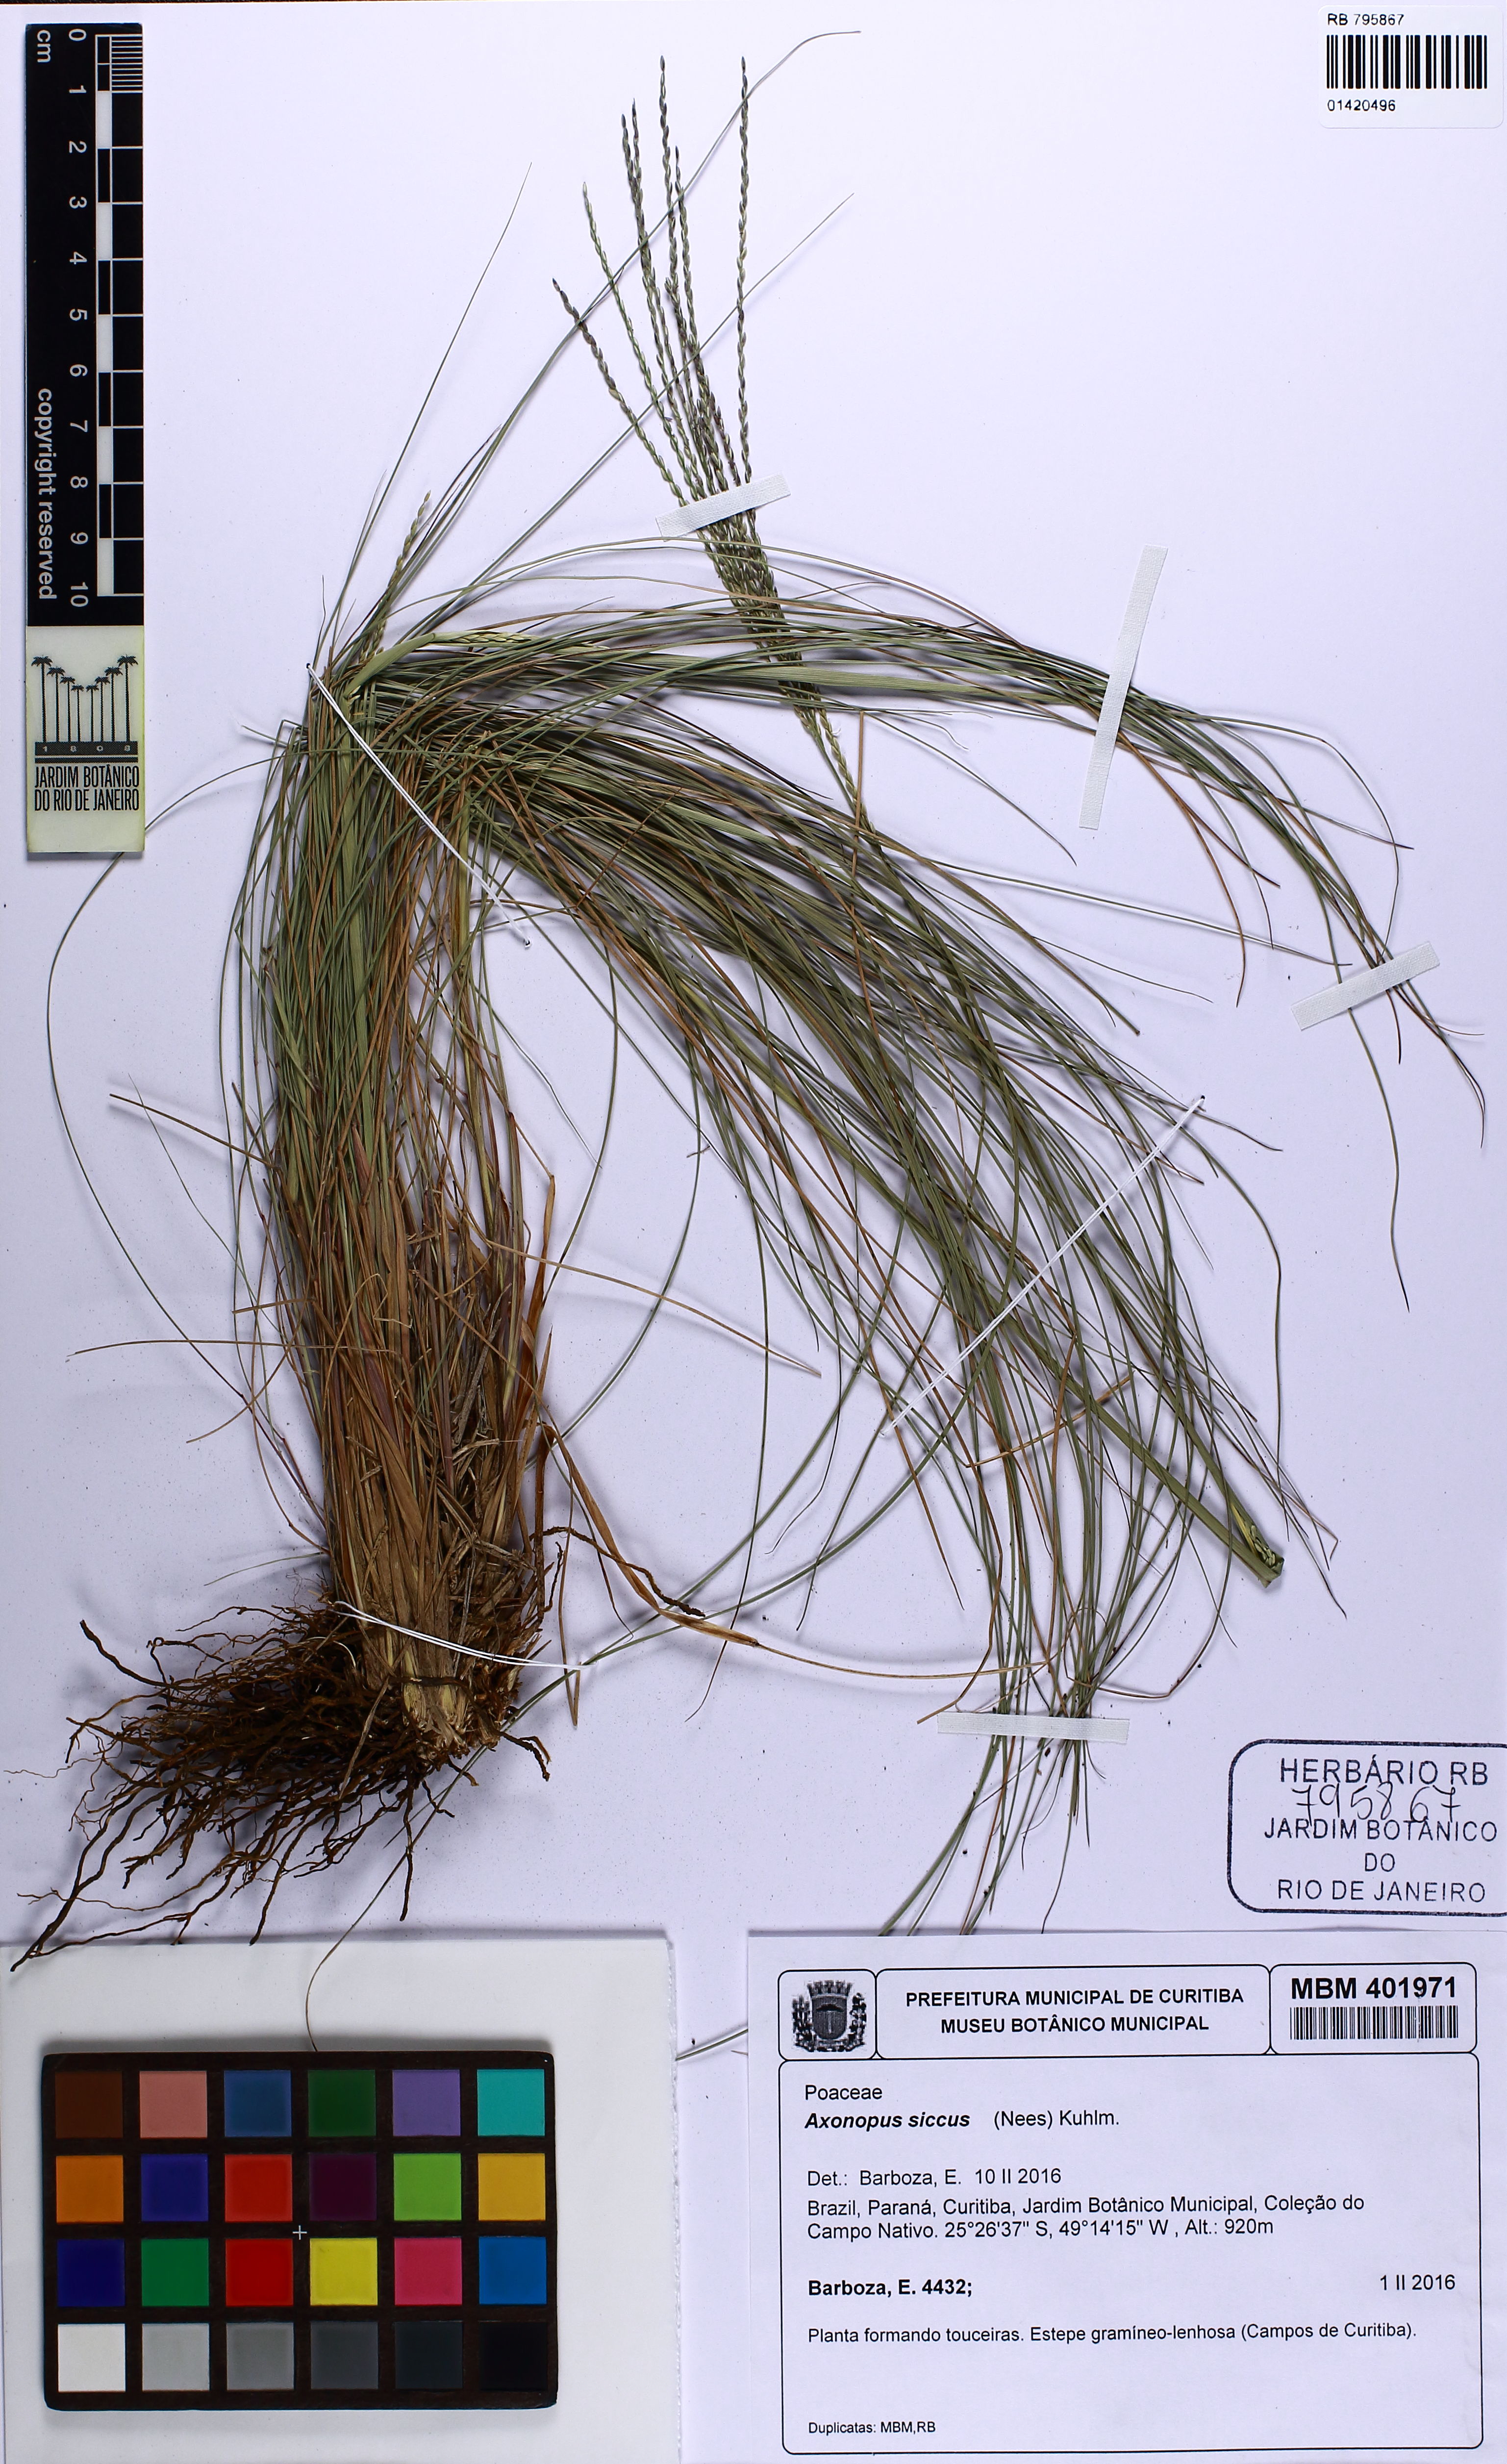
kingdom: Plantae
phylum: Tracheophyta
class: Liliopsida
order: Poales
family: Poaceae
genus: Axonopus
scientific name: Axonopus siccus
